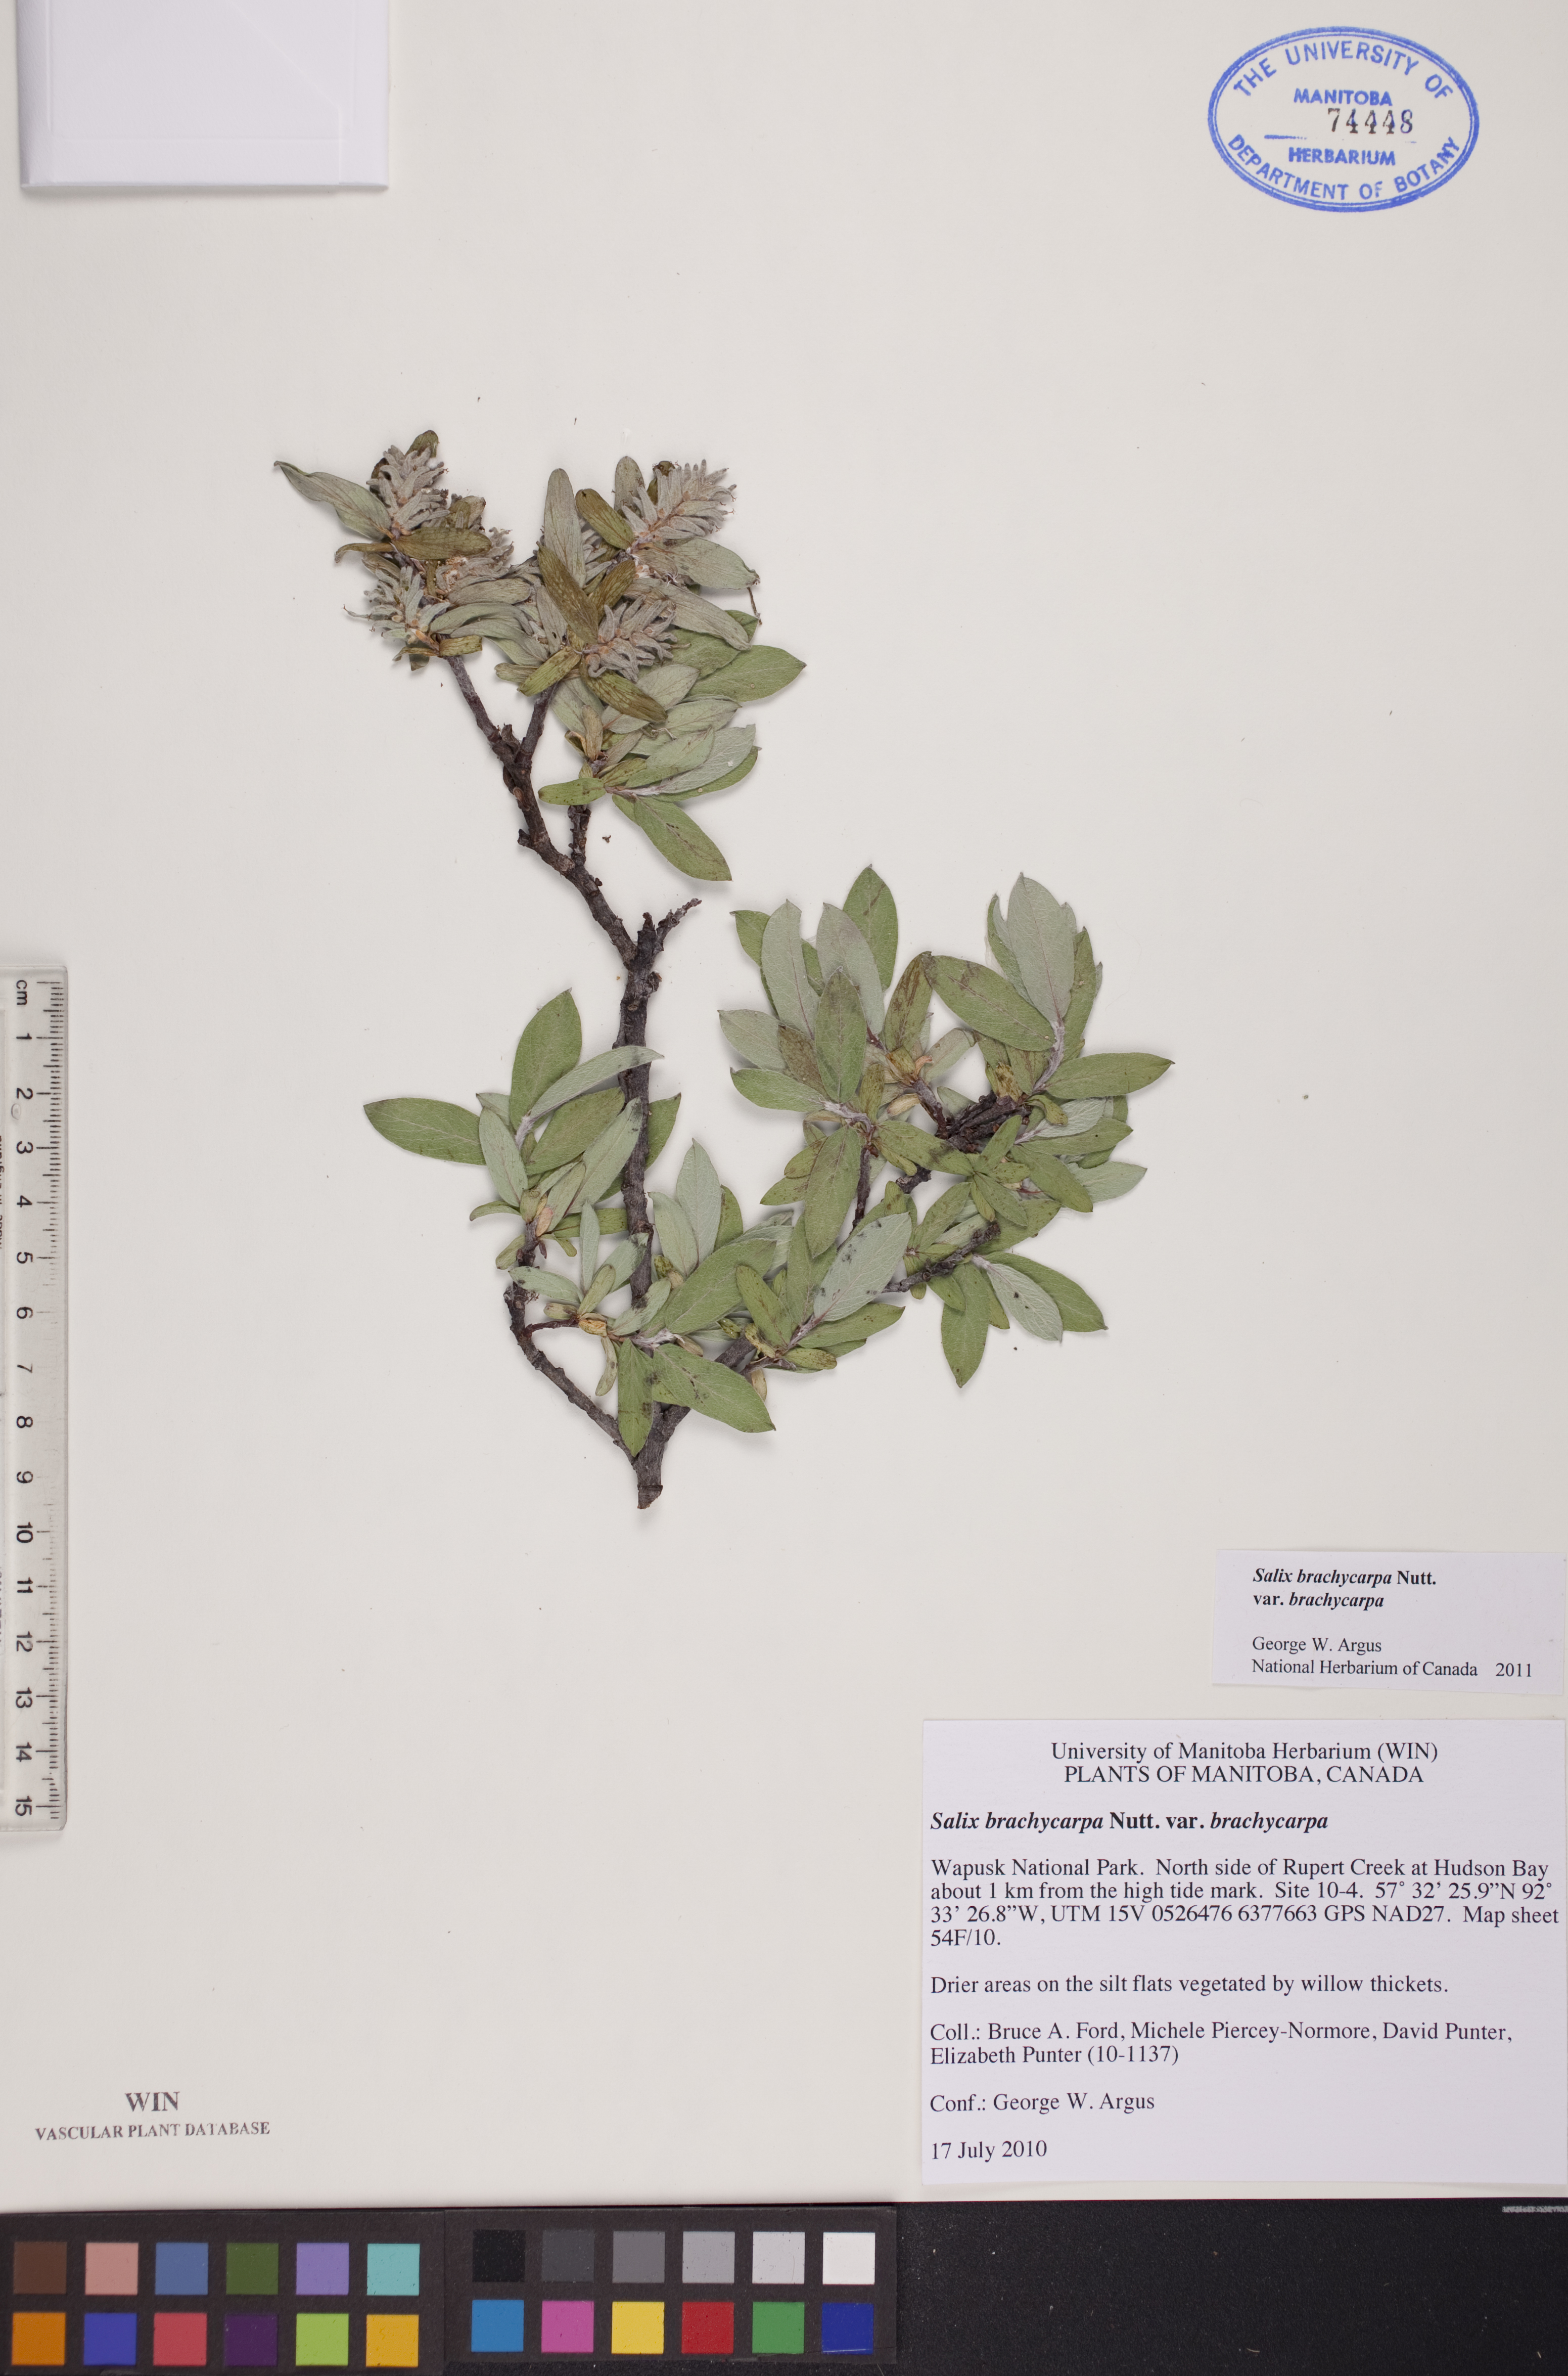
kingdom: Plantae
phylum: Tracheophyta
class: Magnoliopsida
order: Malpighiales
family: Salicaceae
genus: Salix
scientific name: Salix brachycarpa
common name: Barren-ground willow
